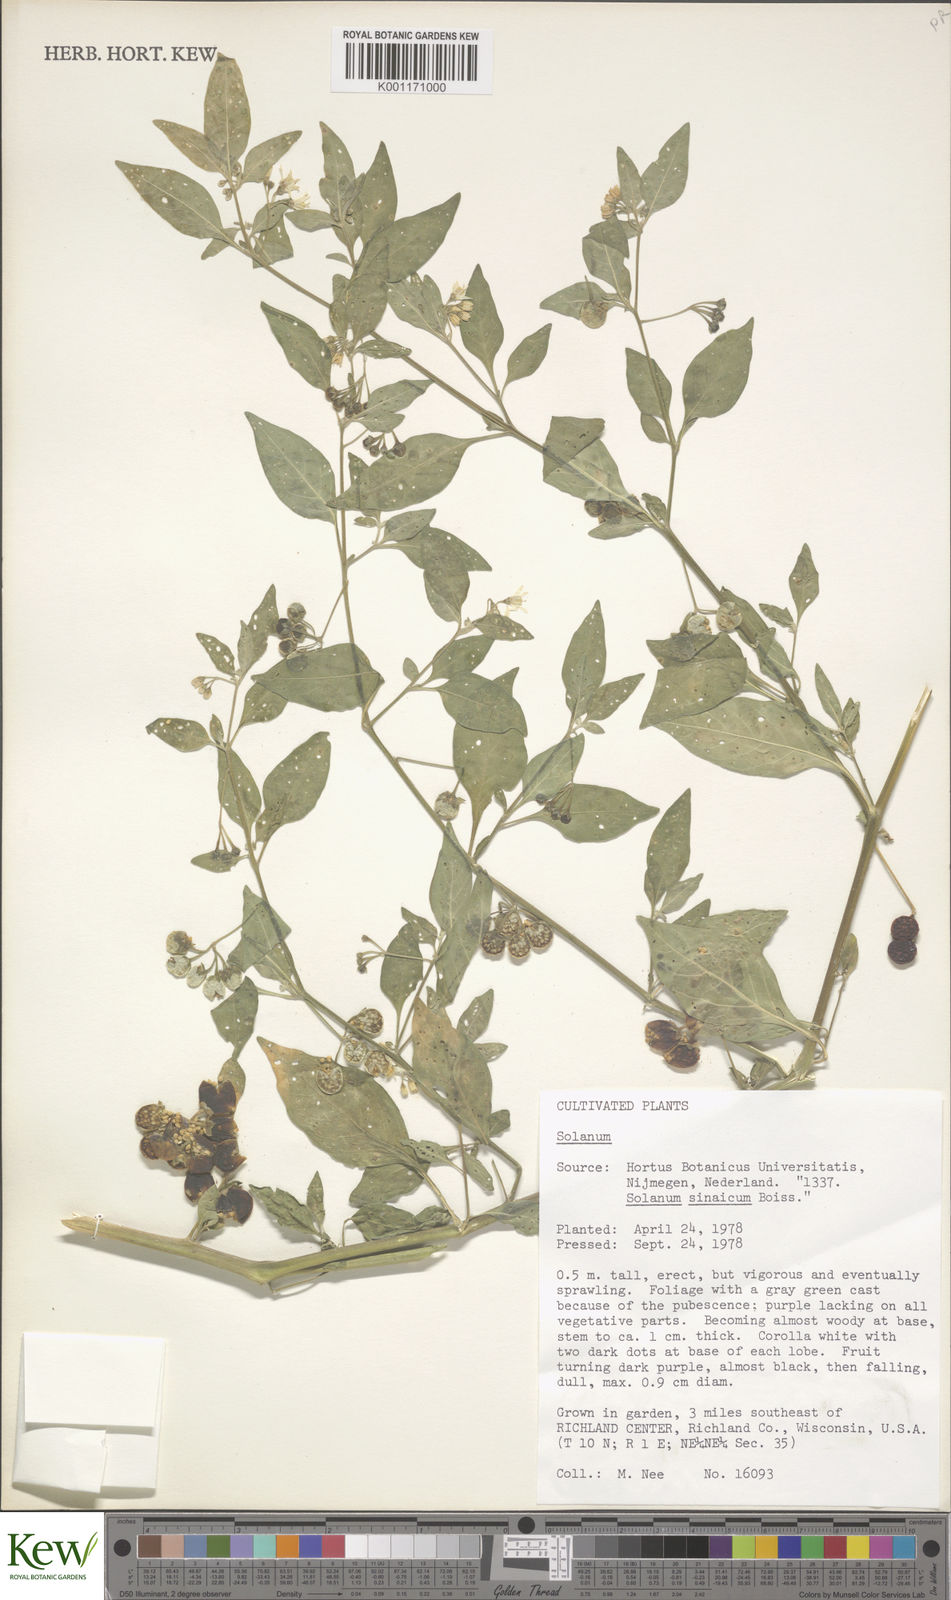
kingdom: Plantae
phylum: Tracheophyta
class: Magnoliopsida
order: Solanales
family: Solanaceae
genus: Solanum
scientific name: Solanum
